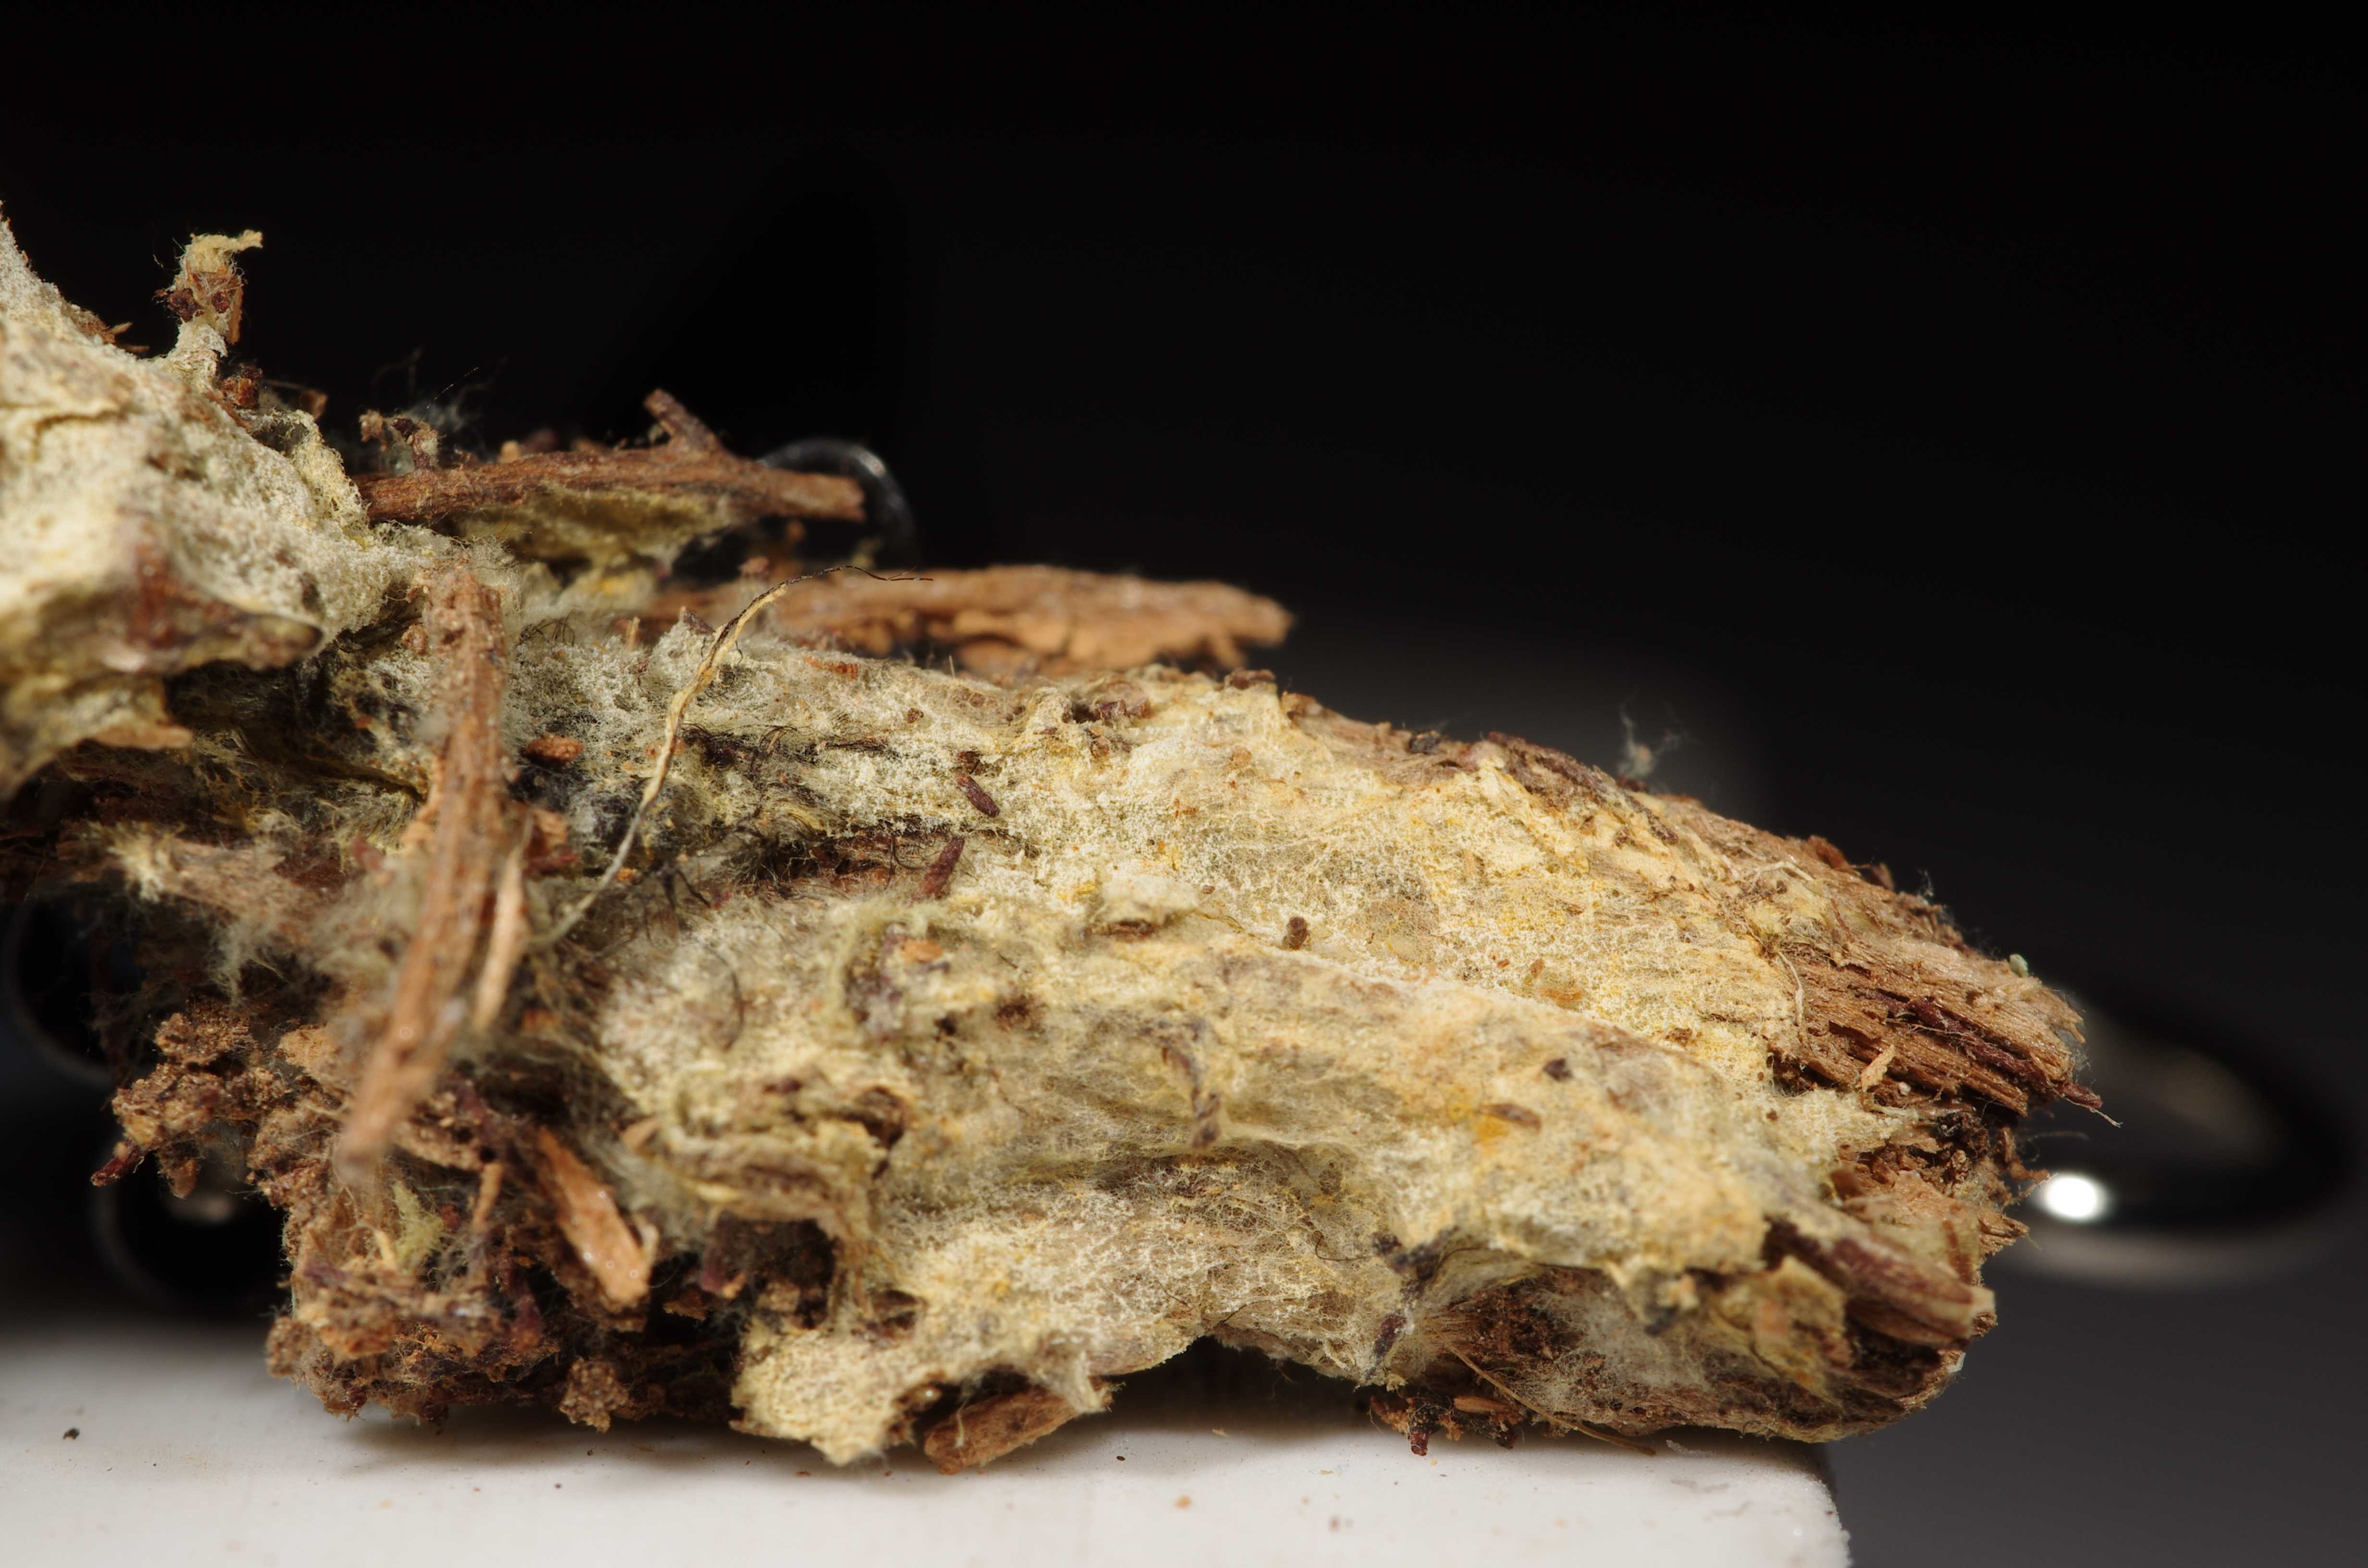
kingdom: Fungi
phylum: Basidiomycota
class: Agaricomycetes
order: Atheliales
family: Atheliaceae
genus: Tretomyces
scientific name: Tretomyces lutescens
